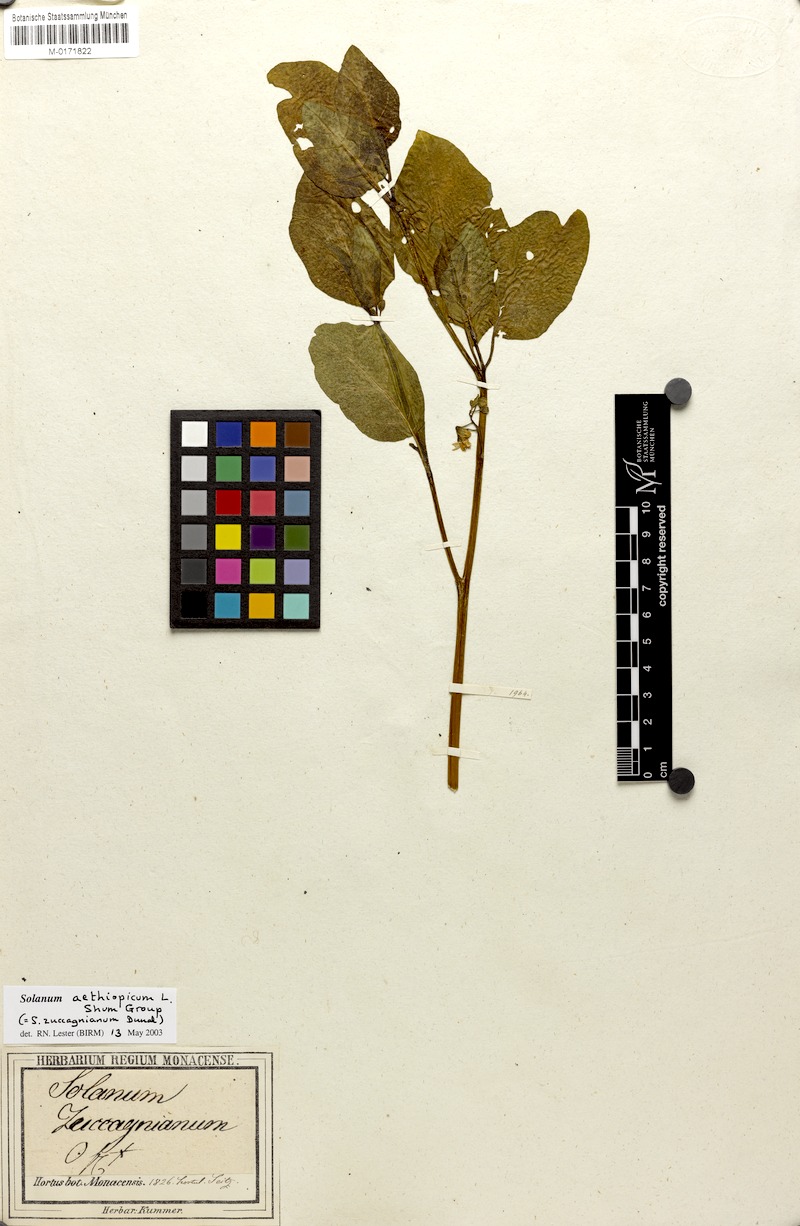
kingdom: Plantae
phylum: Tracheophyta
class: Magnoliopsida
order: Solanales
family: Solanaceae
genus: Solanum
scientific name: Solanum aethiopicum
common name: Gilo
